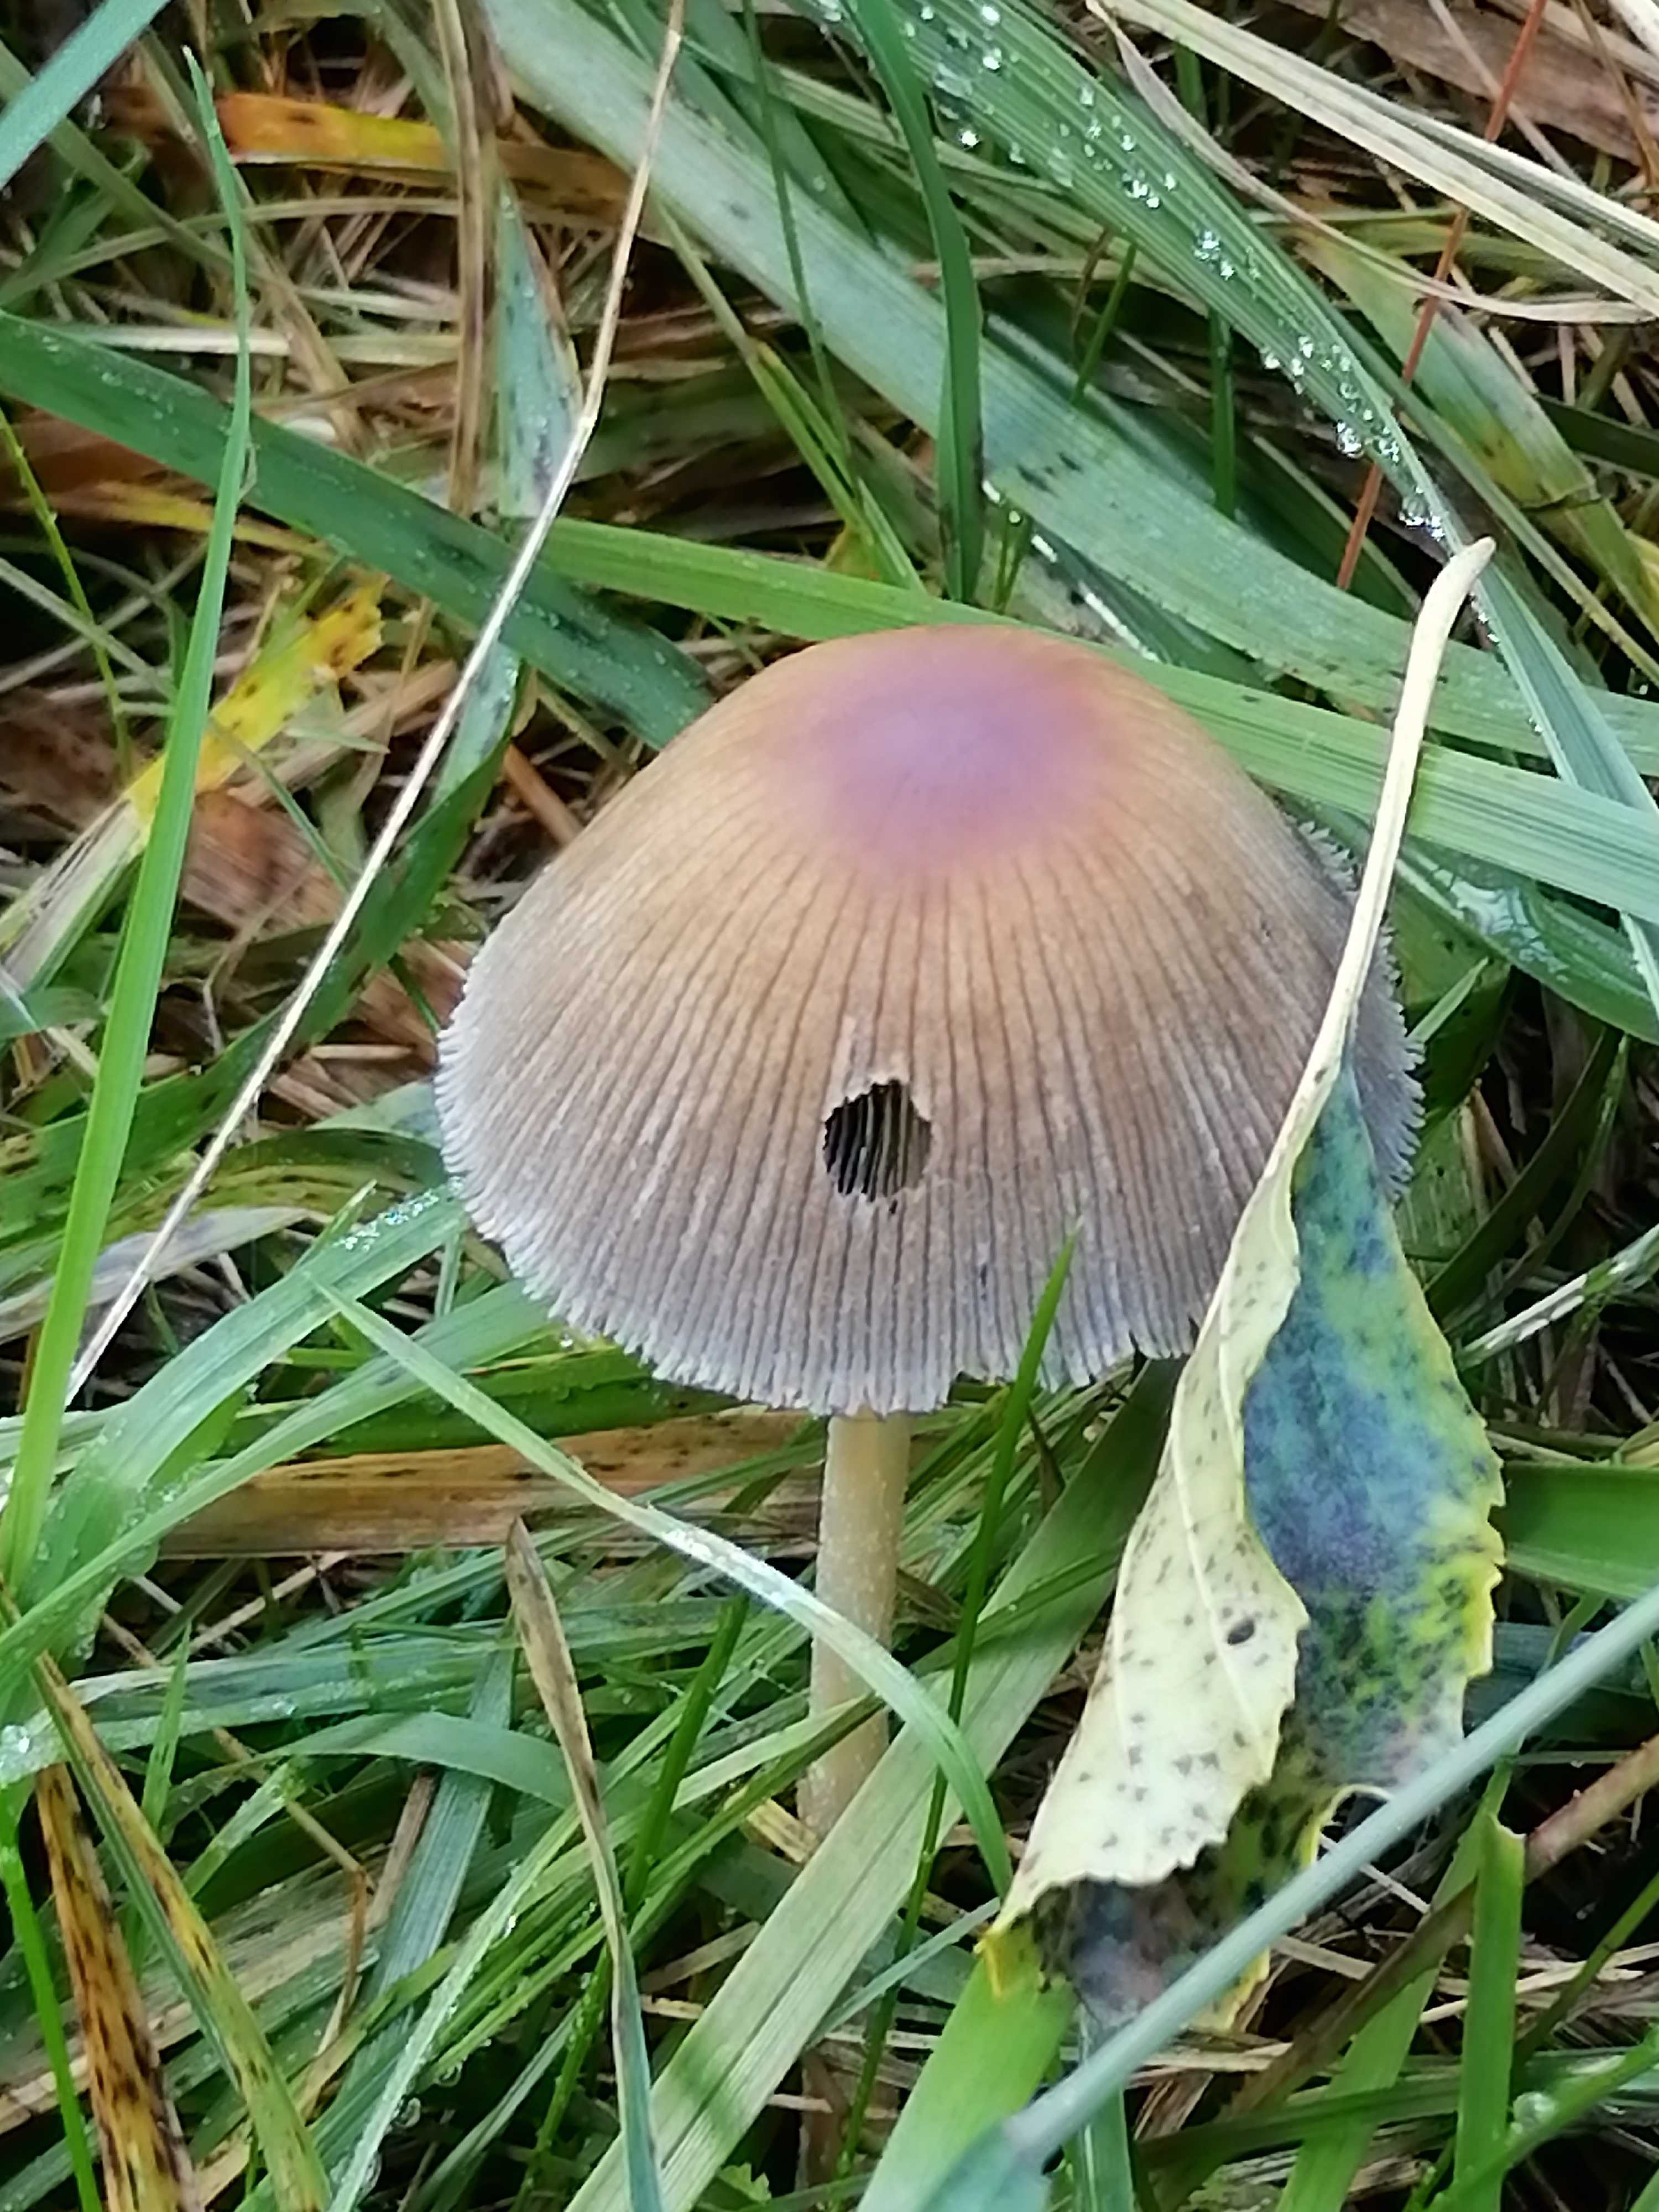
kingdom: Fungi
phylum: Basidiomycota
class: Agaricomycetes
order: Agaricales
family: Psathyrellaceae
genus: Coprinellus
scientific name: Coprinellus
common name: blækhat
